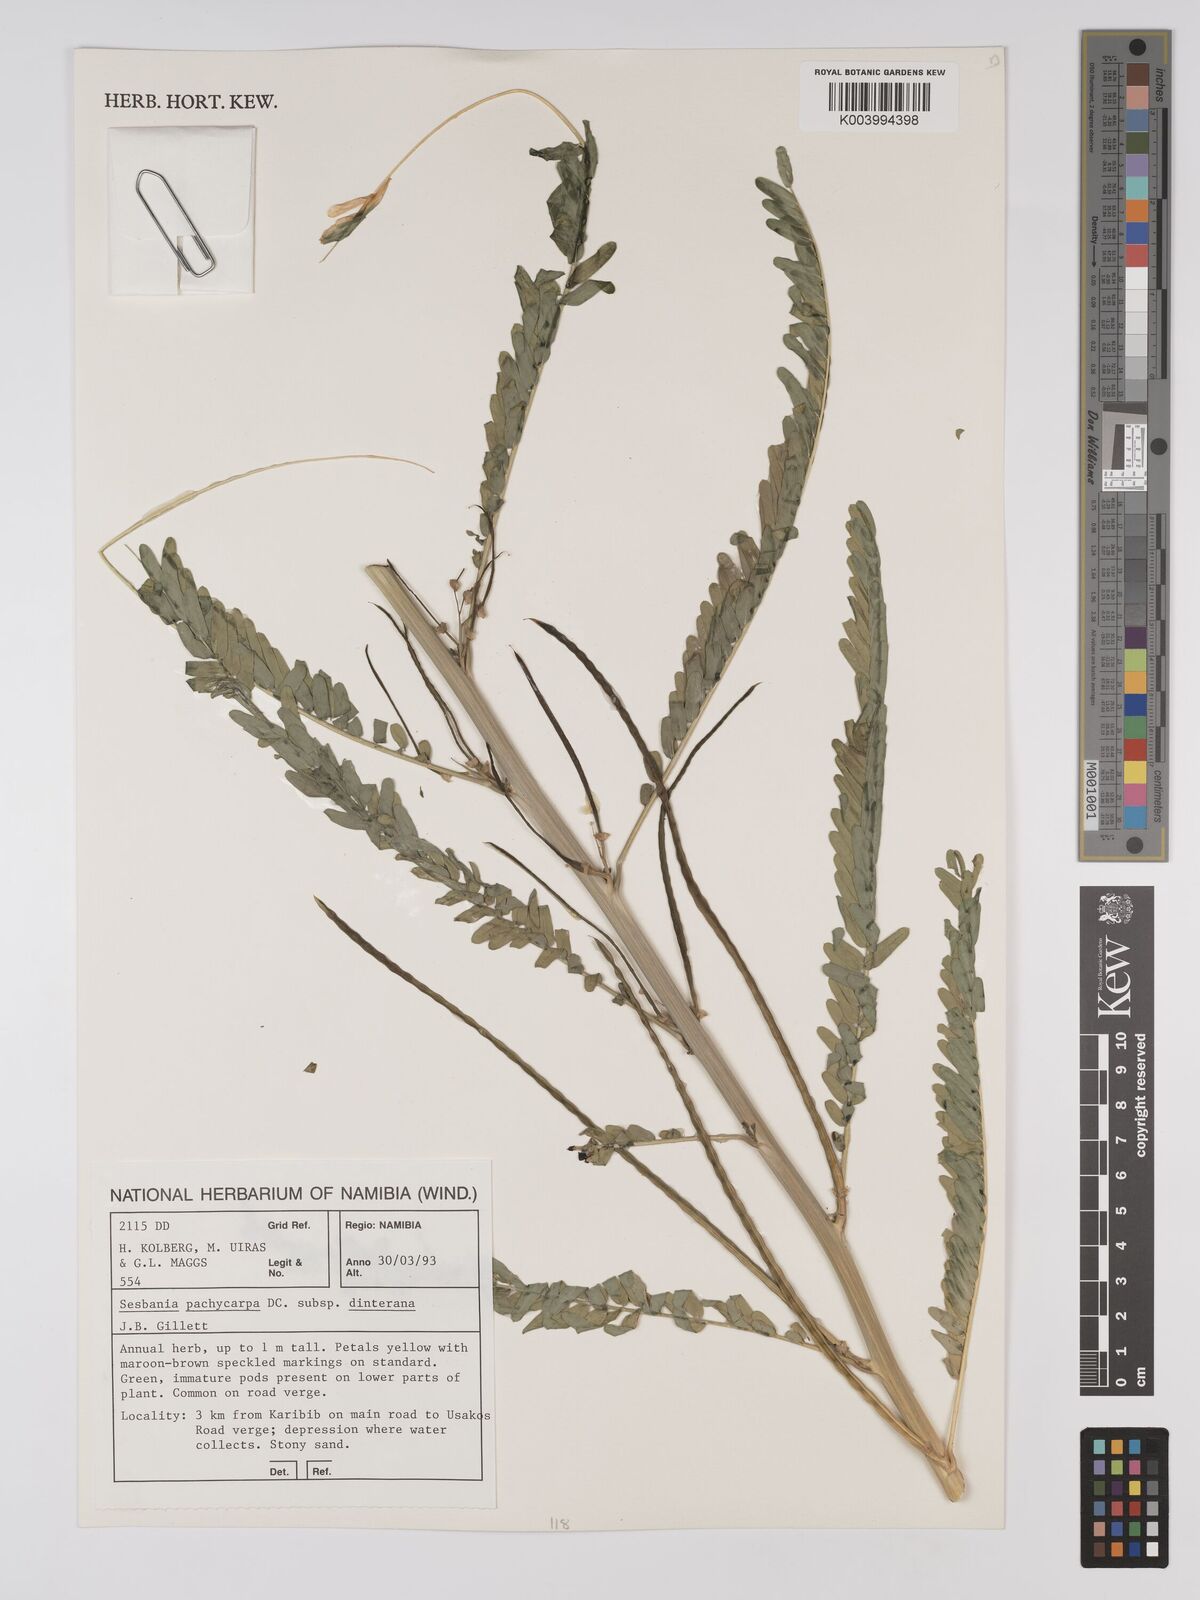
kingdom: Plantae
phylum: Tracheophyta
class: Magnoliopsida
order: Fabales
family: Fabaceae
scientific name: Fabaceae
